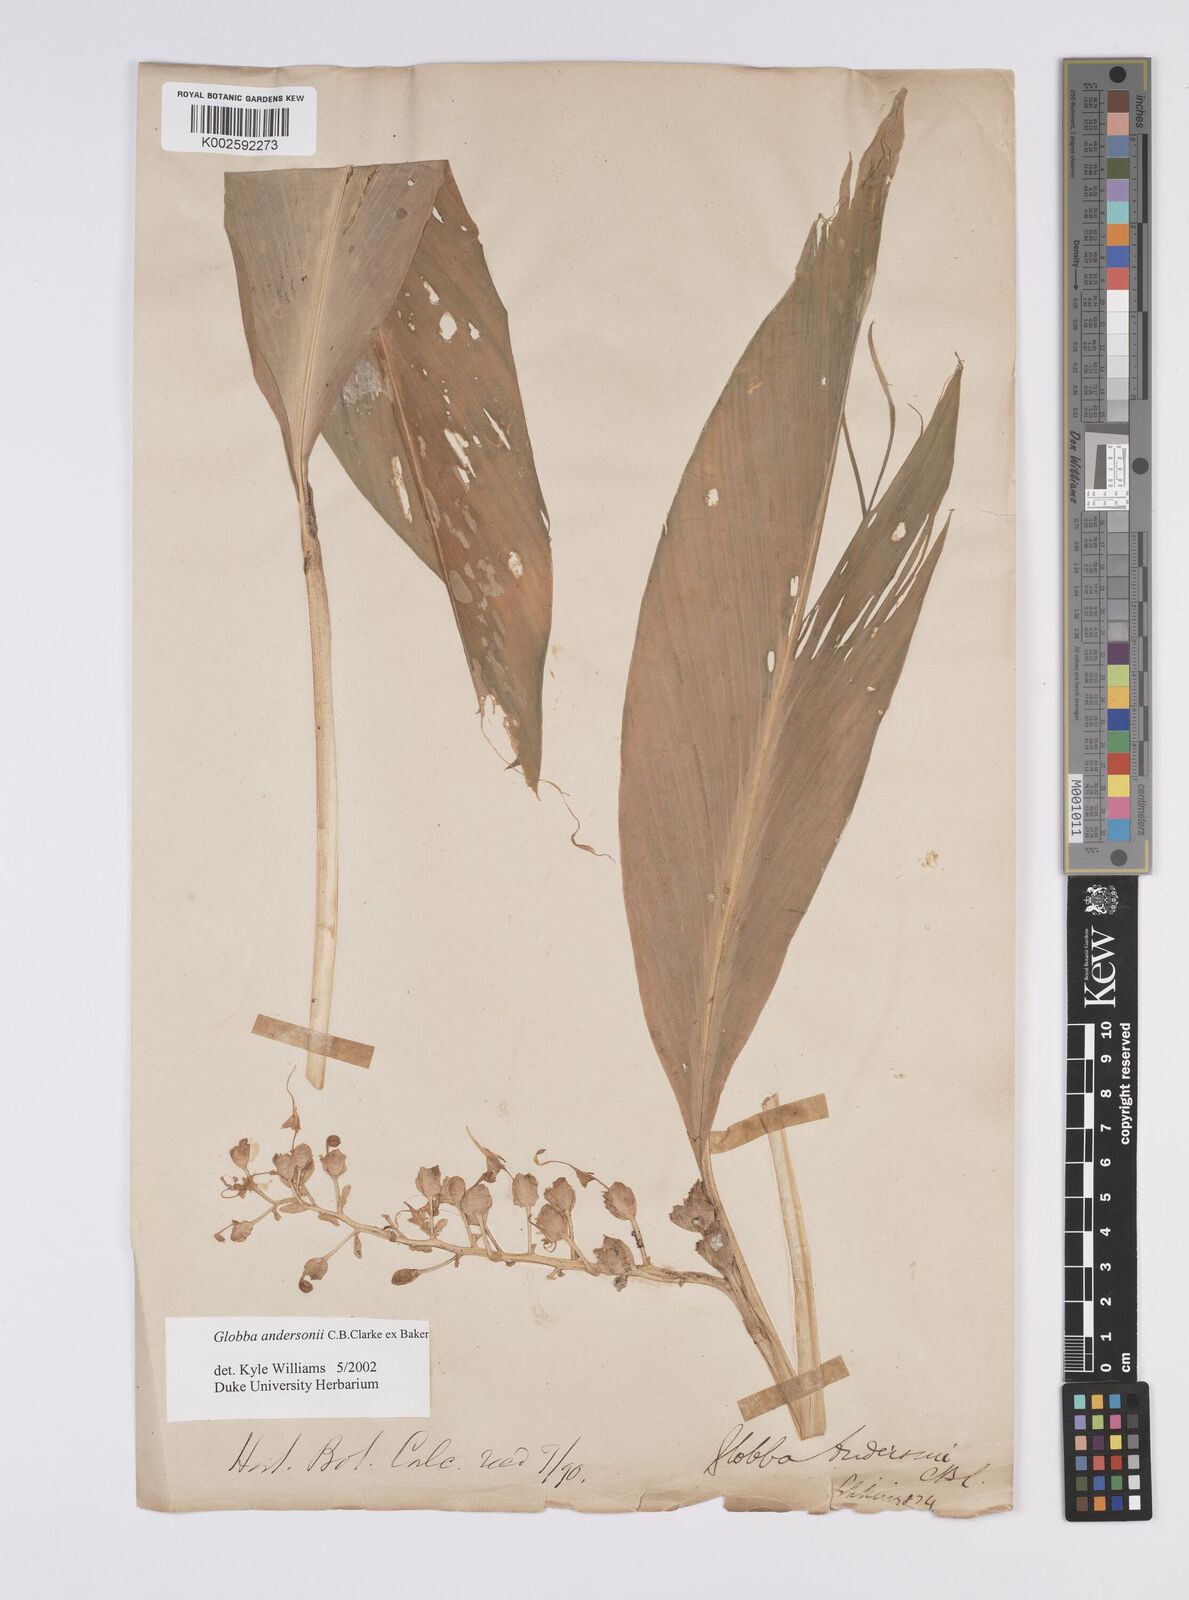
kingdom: Plantae
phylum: Tracheophyta
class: Liliopsida
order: Zingiberales
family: Zingiberaceae
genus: Globba
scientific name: Globba andersonii
